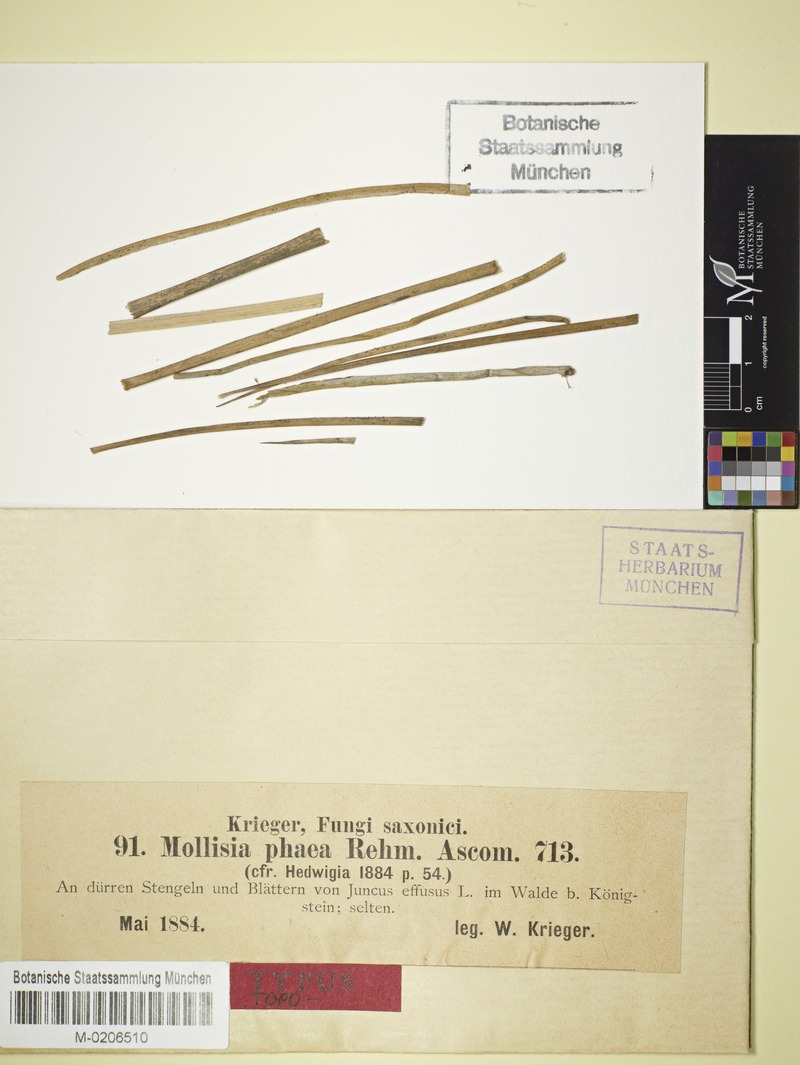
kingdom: Fungi
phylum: Ascomycota
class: Leotiomycetes
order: Helotiales
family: Mollisiaceae
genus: Nimbomollisia
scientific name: Nimbomollisia eriophori
